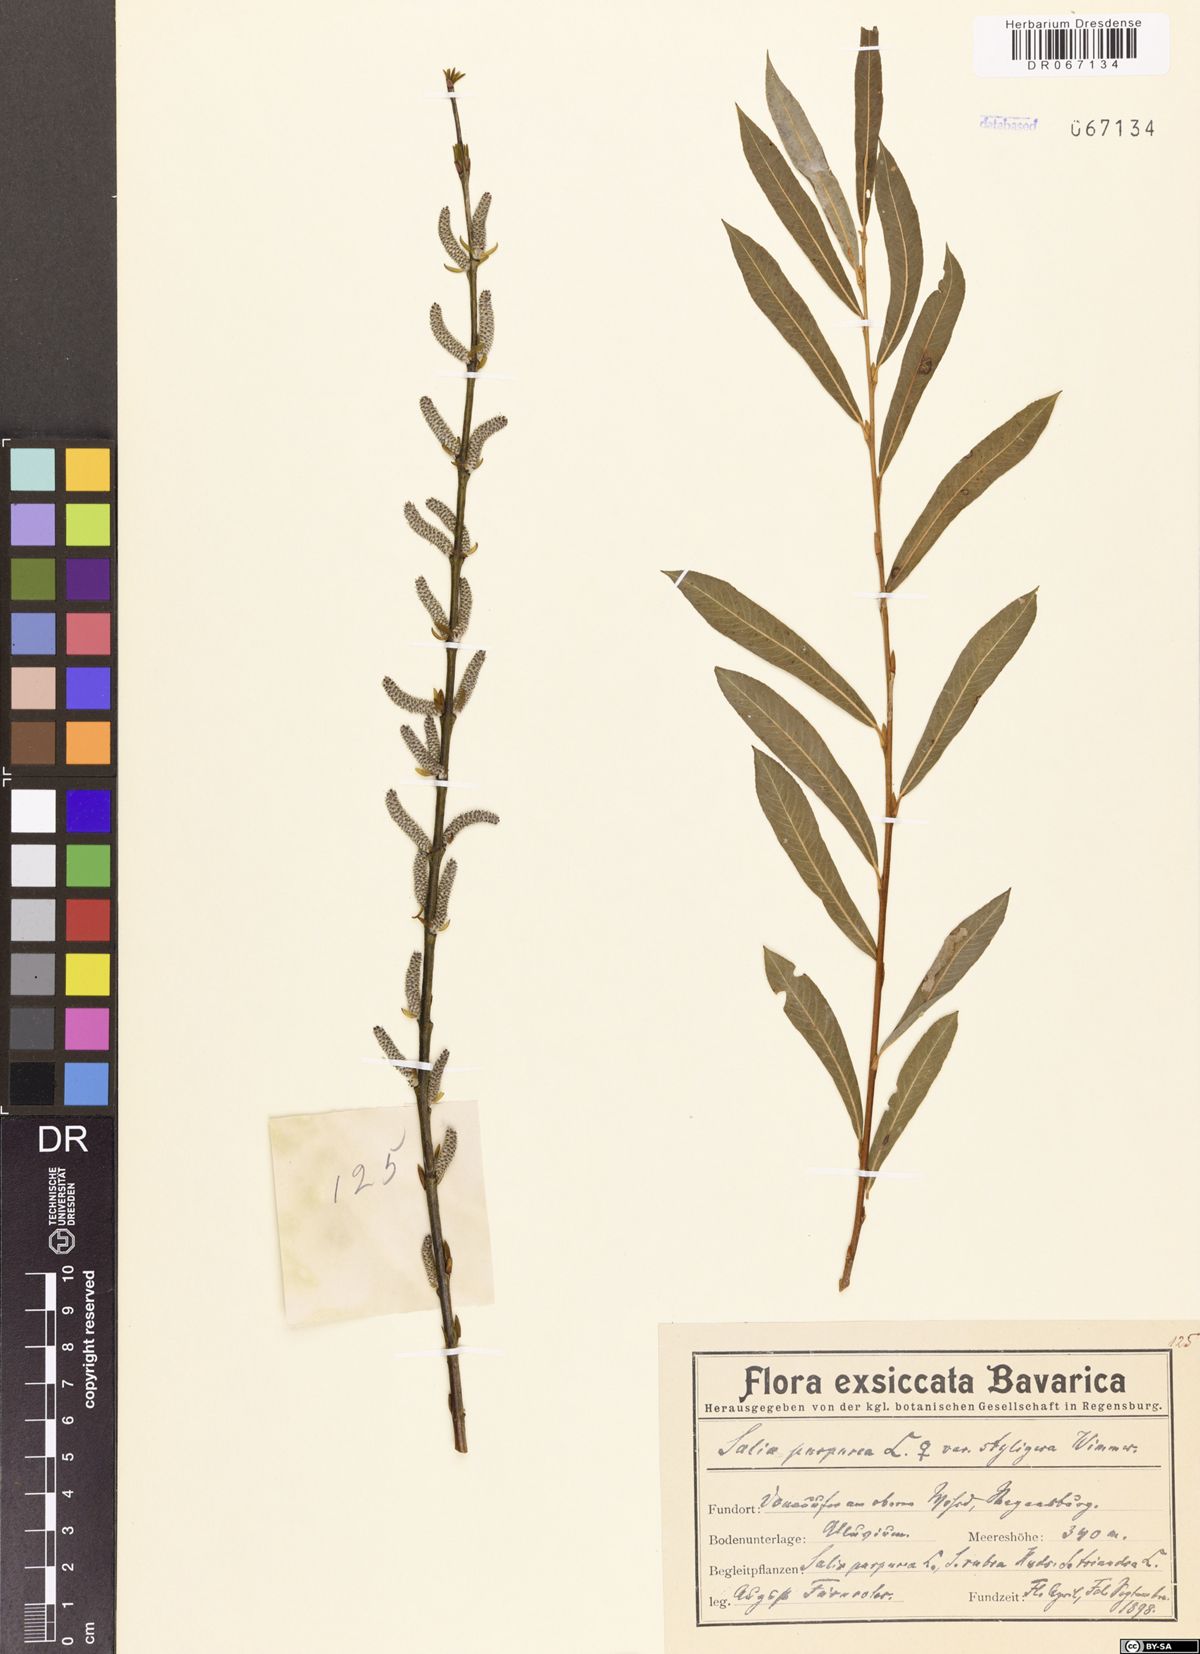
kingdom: Plantae
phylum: Tracheophyta
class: Magnoliopsida
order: Malpighiales
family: Salicaceae
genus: Salix
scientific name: Salix purpurea
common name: Purple willow
